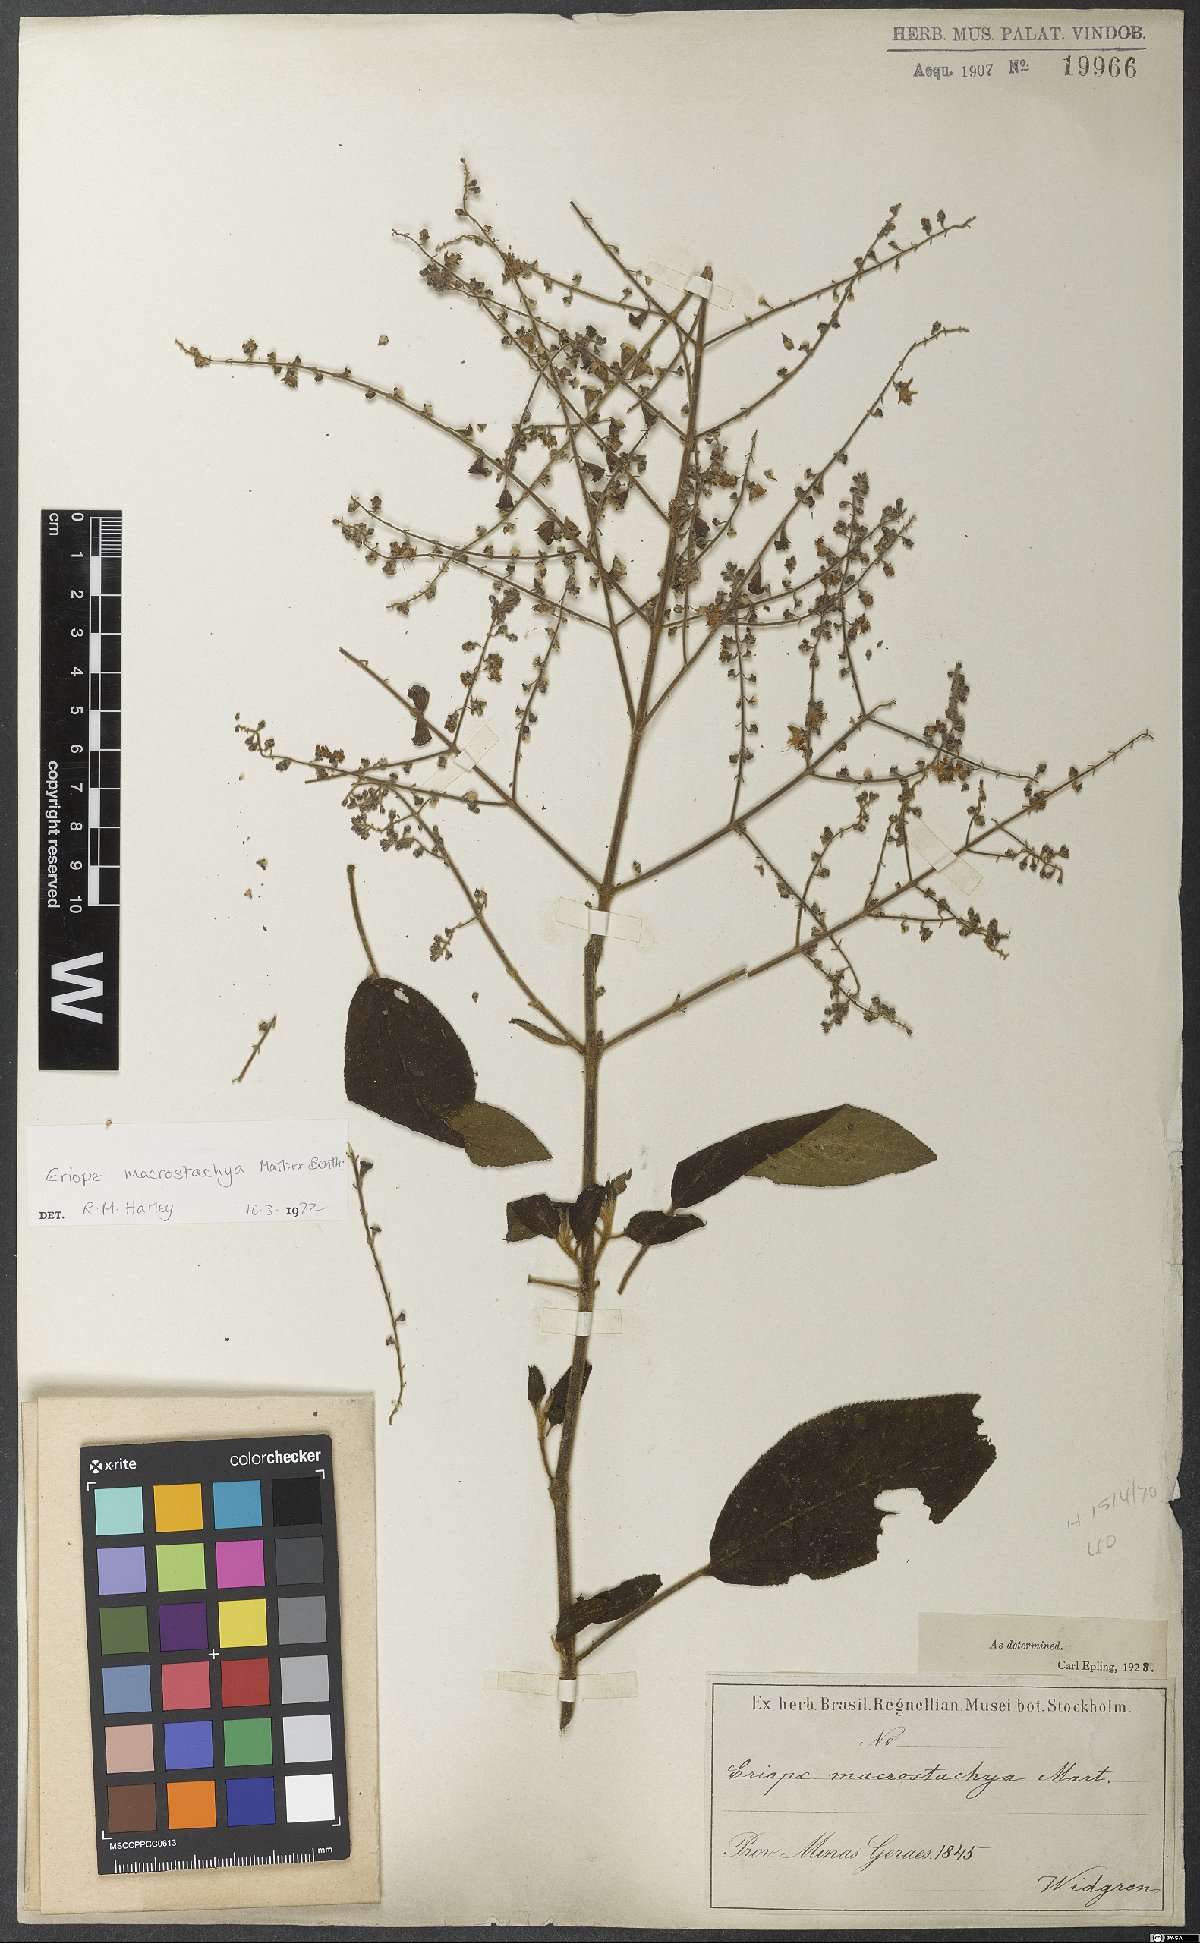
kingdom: Plantae
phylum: Tracheophyta
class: Magnoliopsida
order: Lamiales
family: Lamiaceae
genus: Eriope
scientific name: Eriope macrostachya
